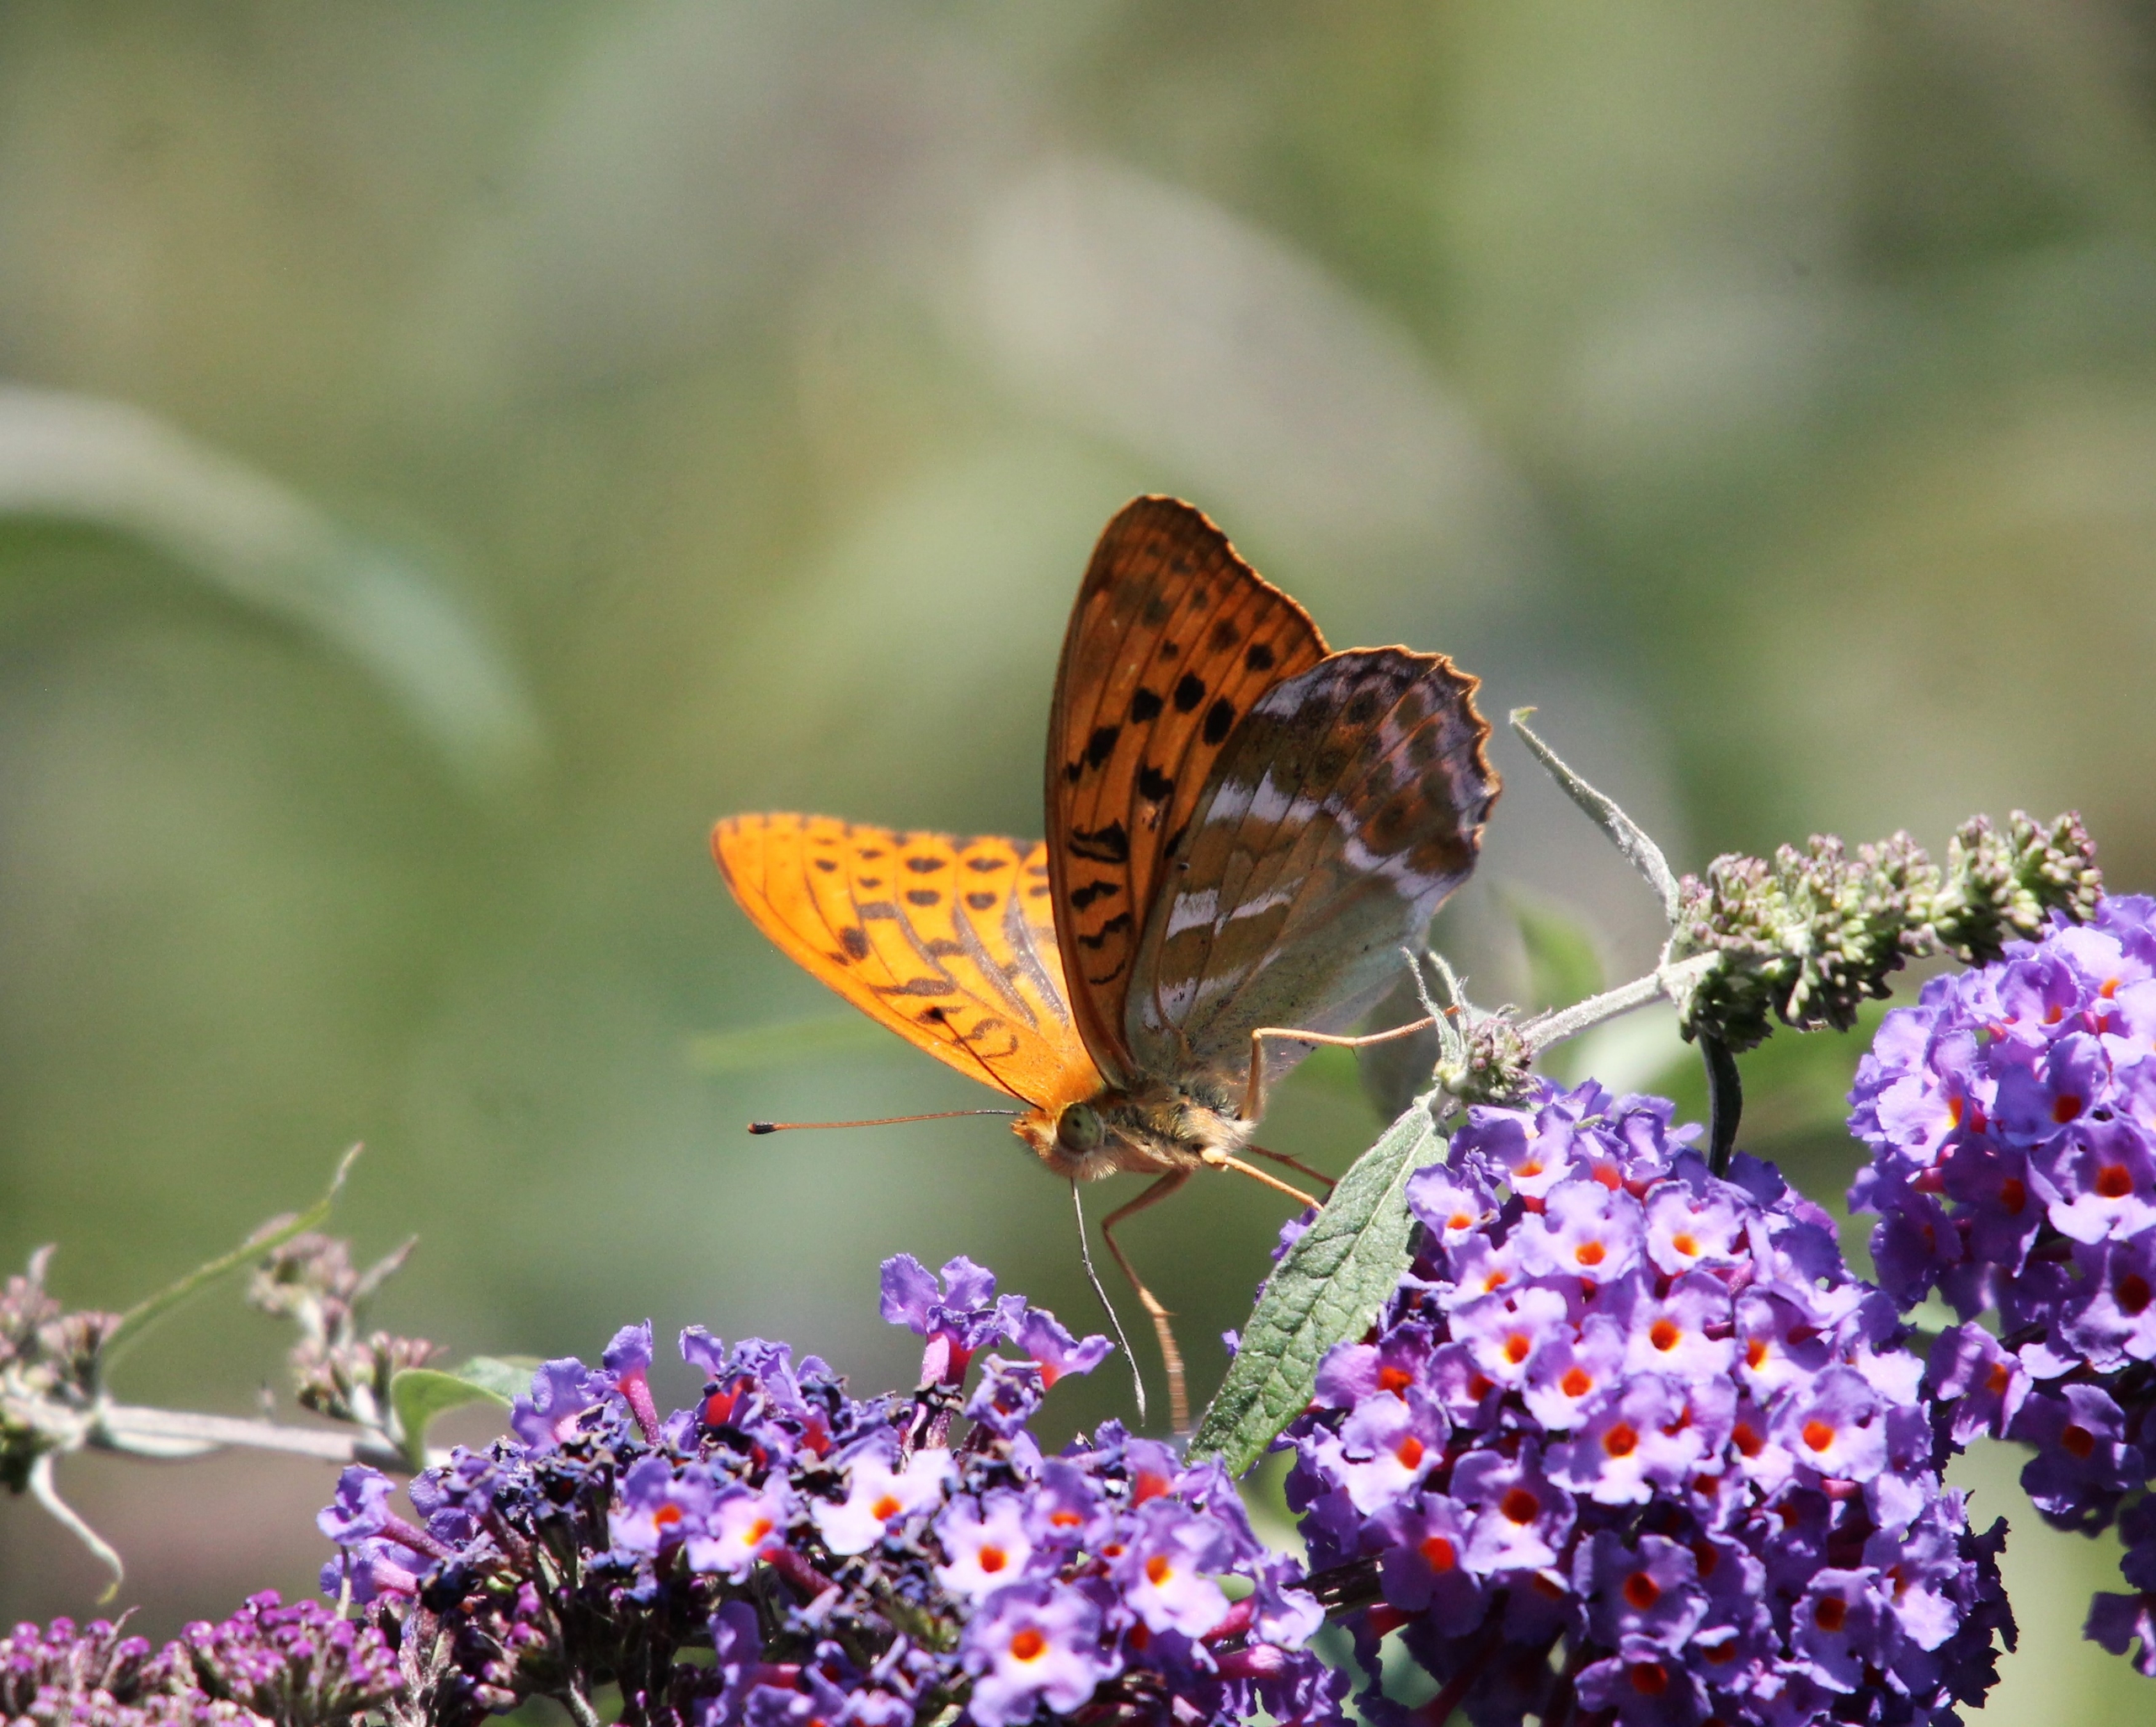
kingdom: Animalia
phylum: Arthropoda
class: Insecta
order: Lepidoptera
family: Nymphalidae
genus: Argynnis
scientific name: Argynnis paphia
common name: Kejserkåbe
